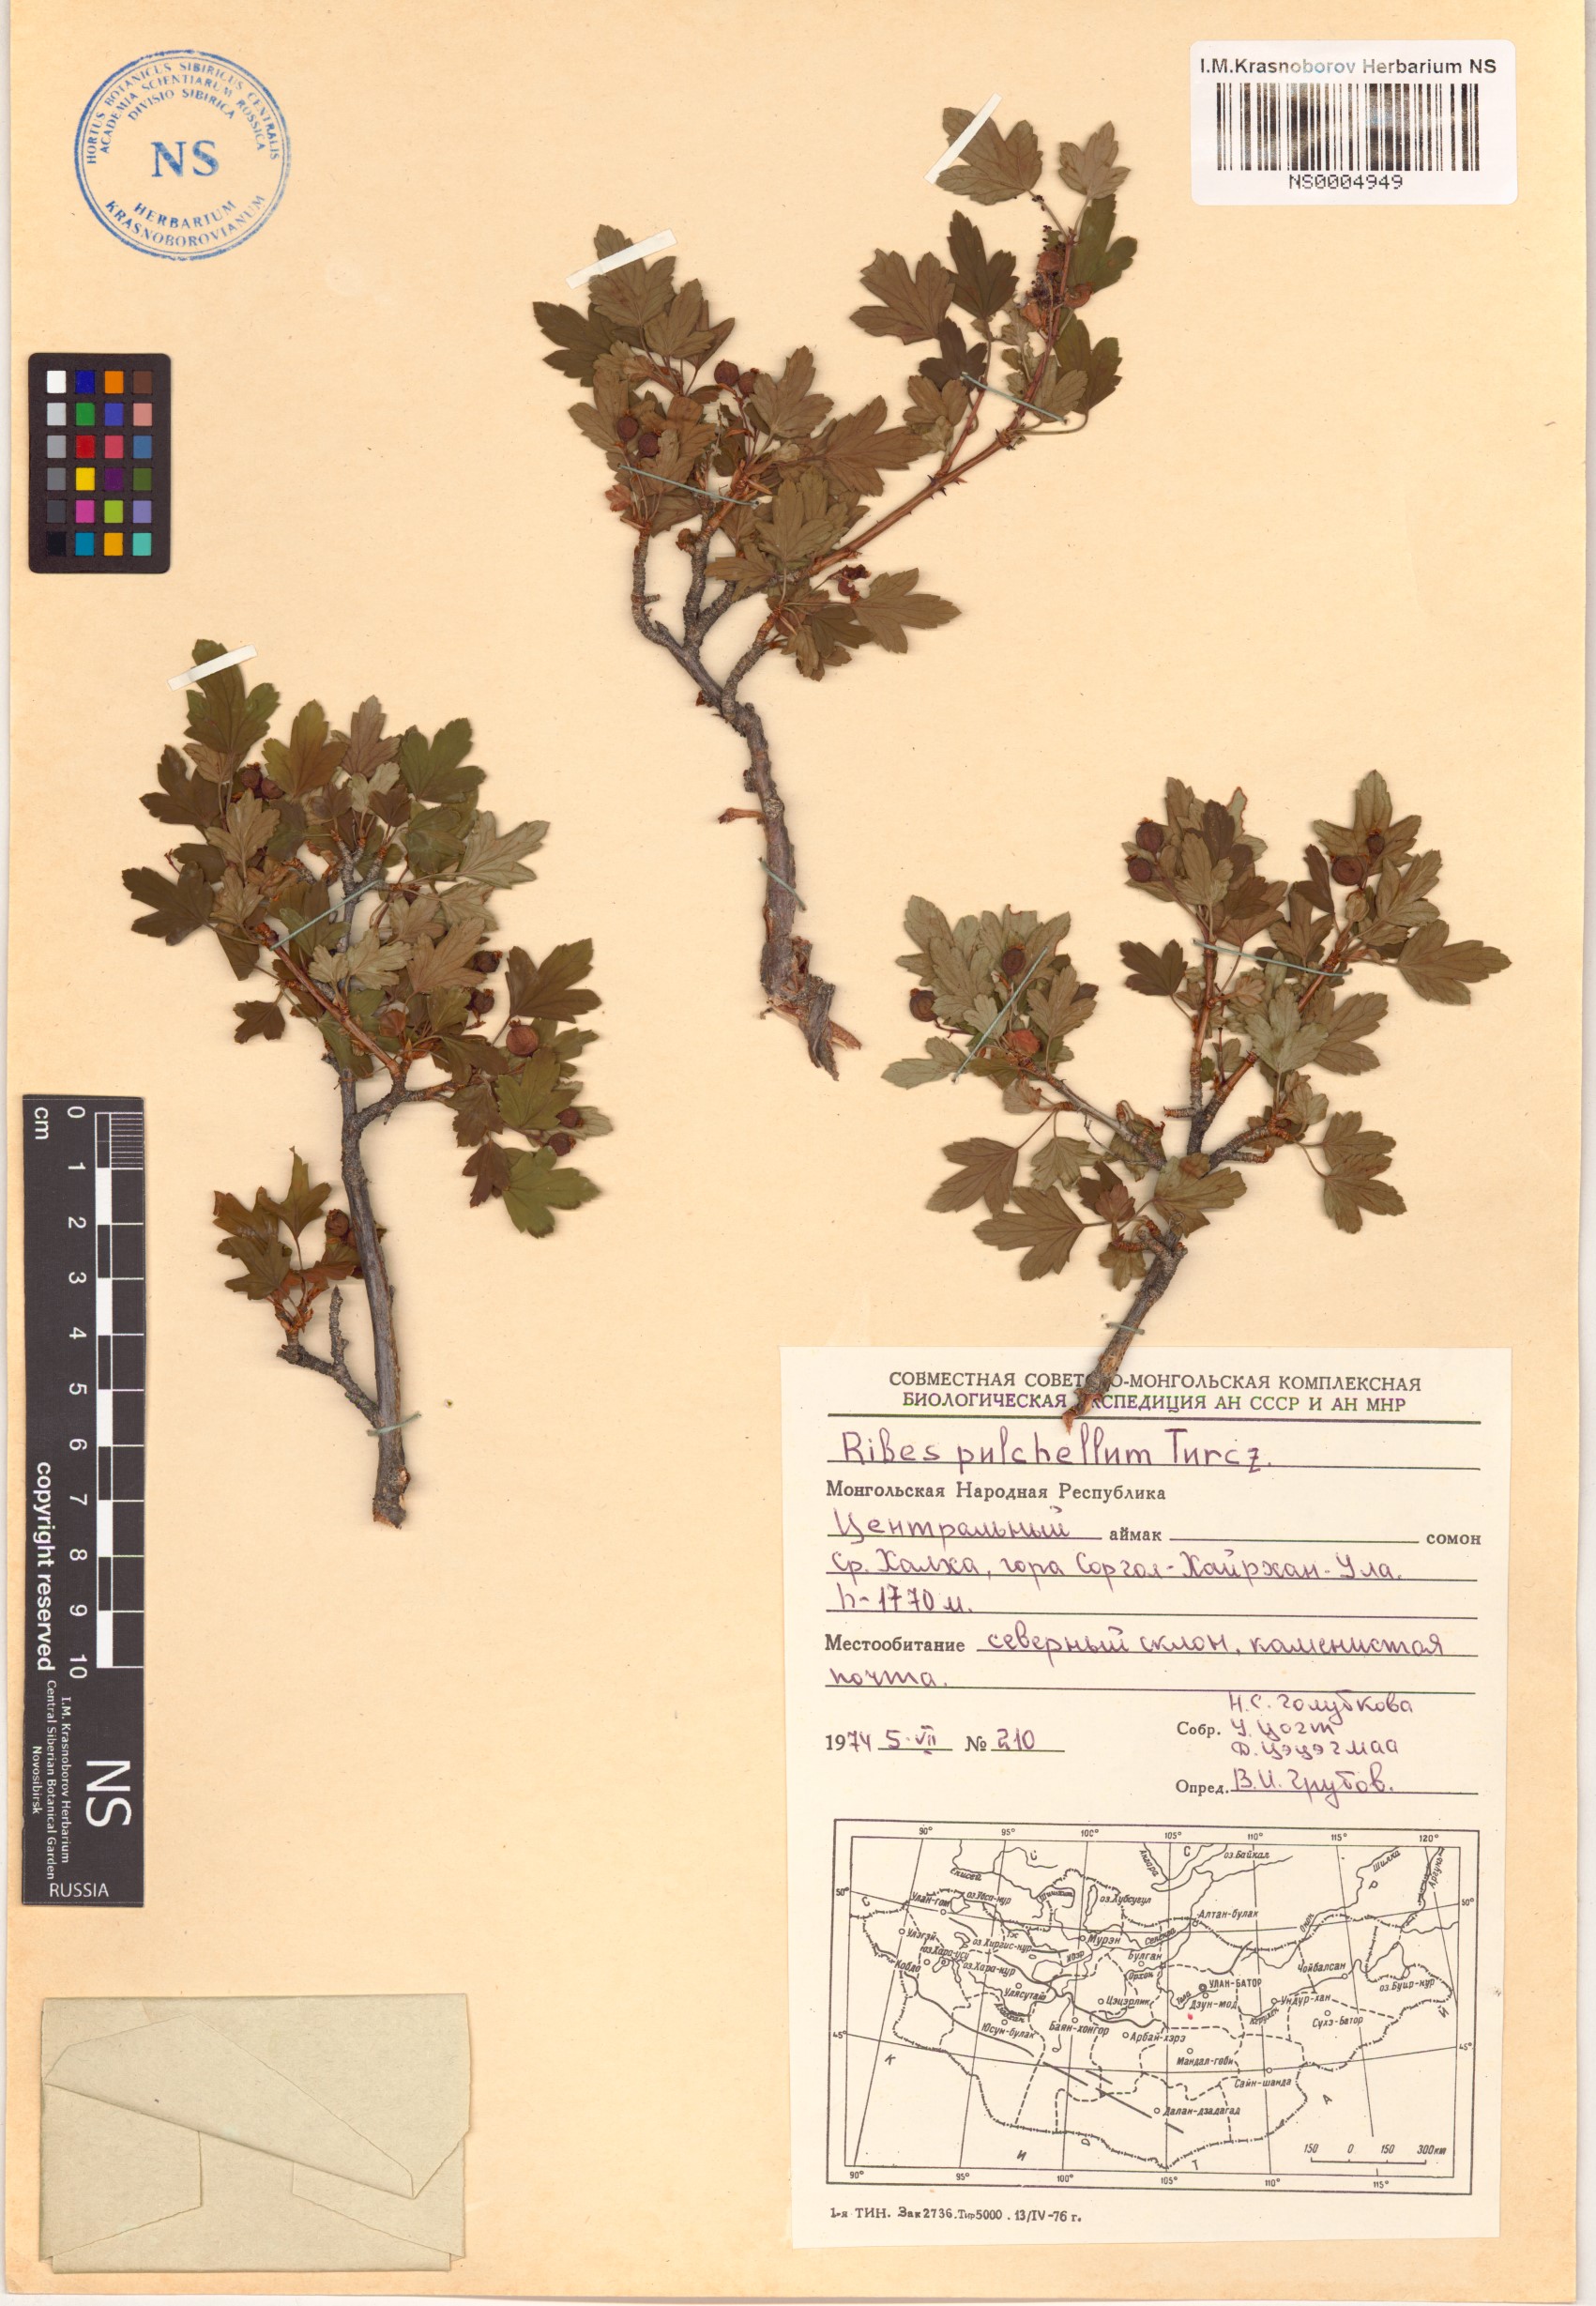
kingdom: Plantae
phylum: Tracheophyta
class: Magnoliopsida
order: Saxifragales
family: Grossulariaceae
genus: Ribes
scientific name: Ribes pulchellum
